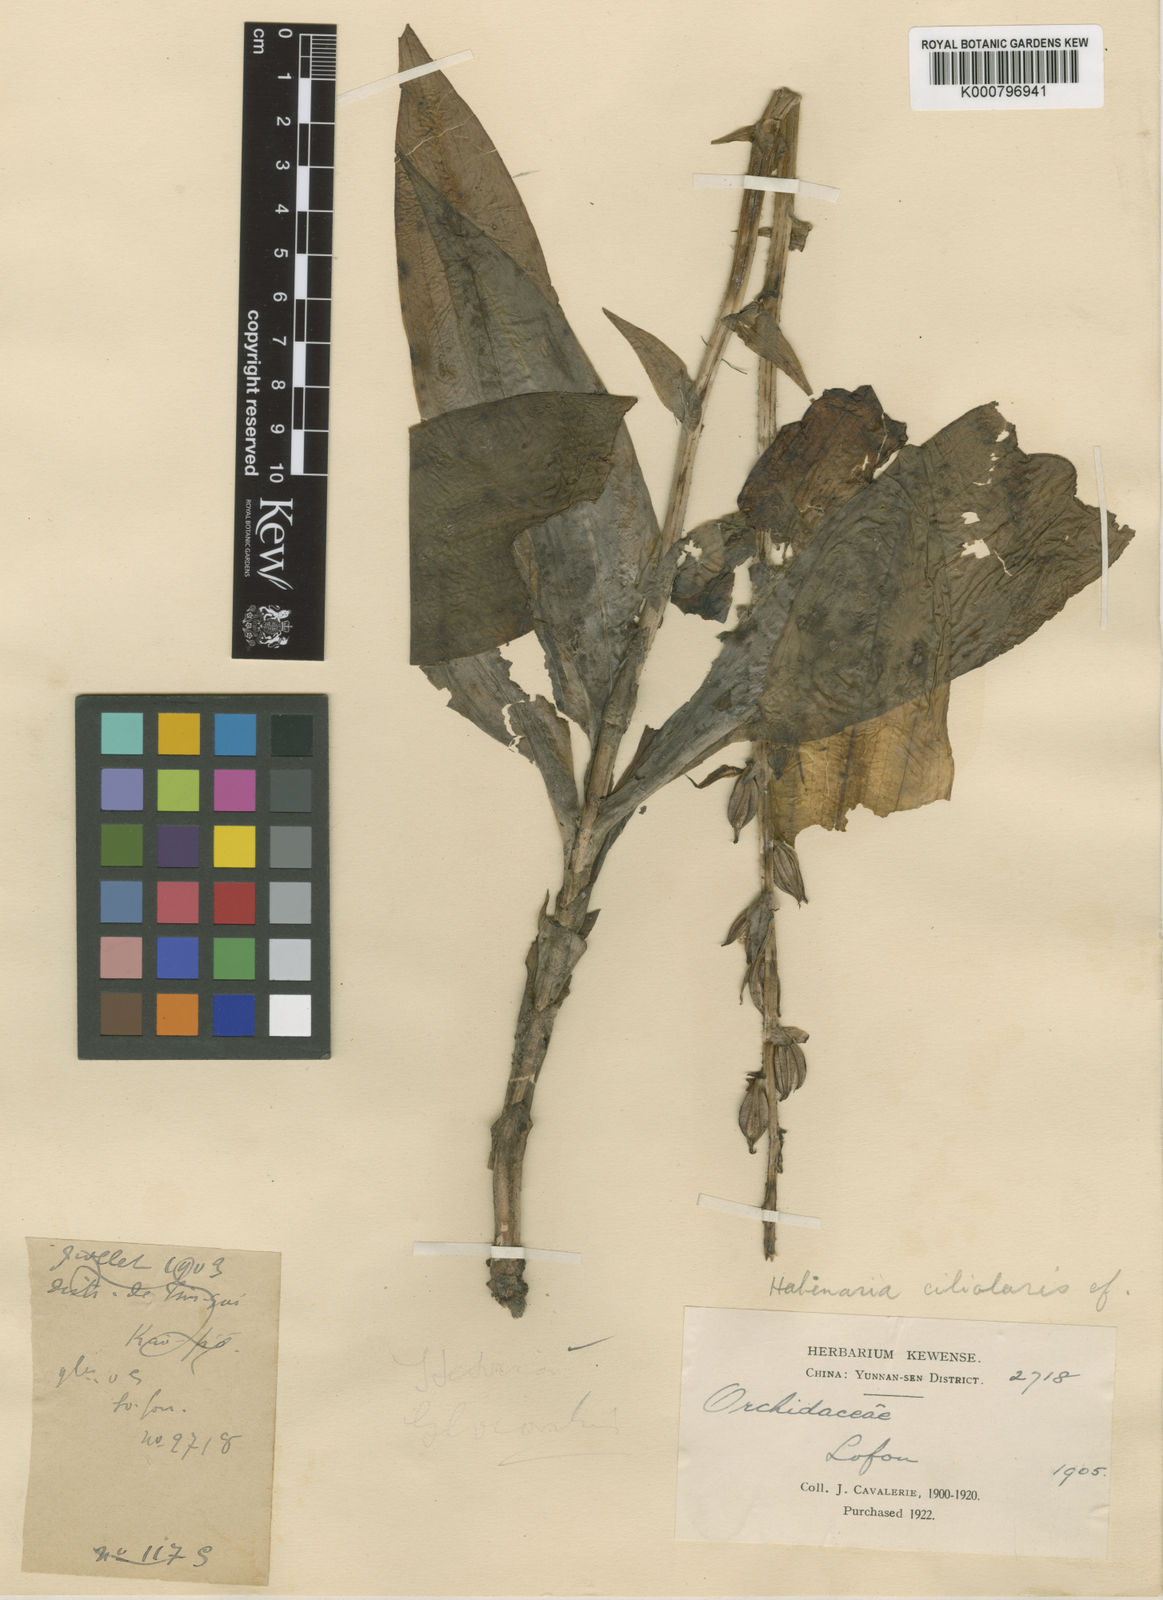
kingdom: Plantae
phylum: Tracheophyta
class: Liliopsida
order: Asparagales
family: Orchidaceae
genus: Habenaria
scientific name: Habenaria ciliolaris
